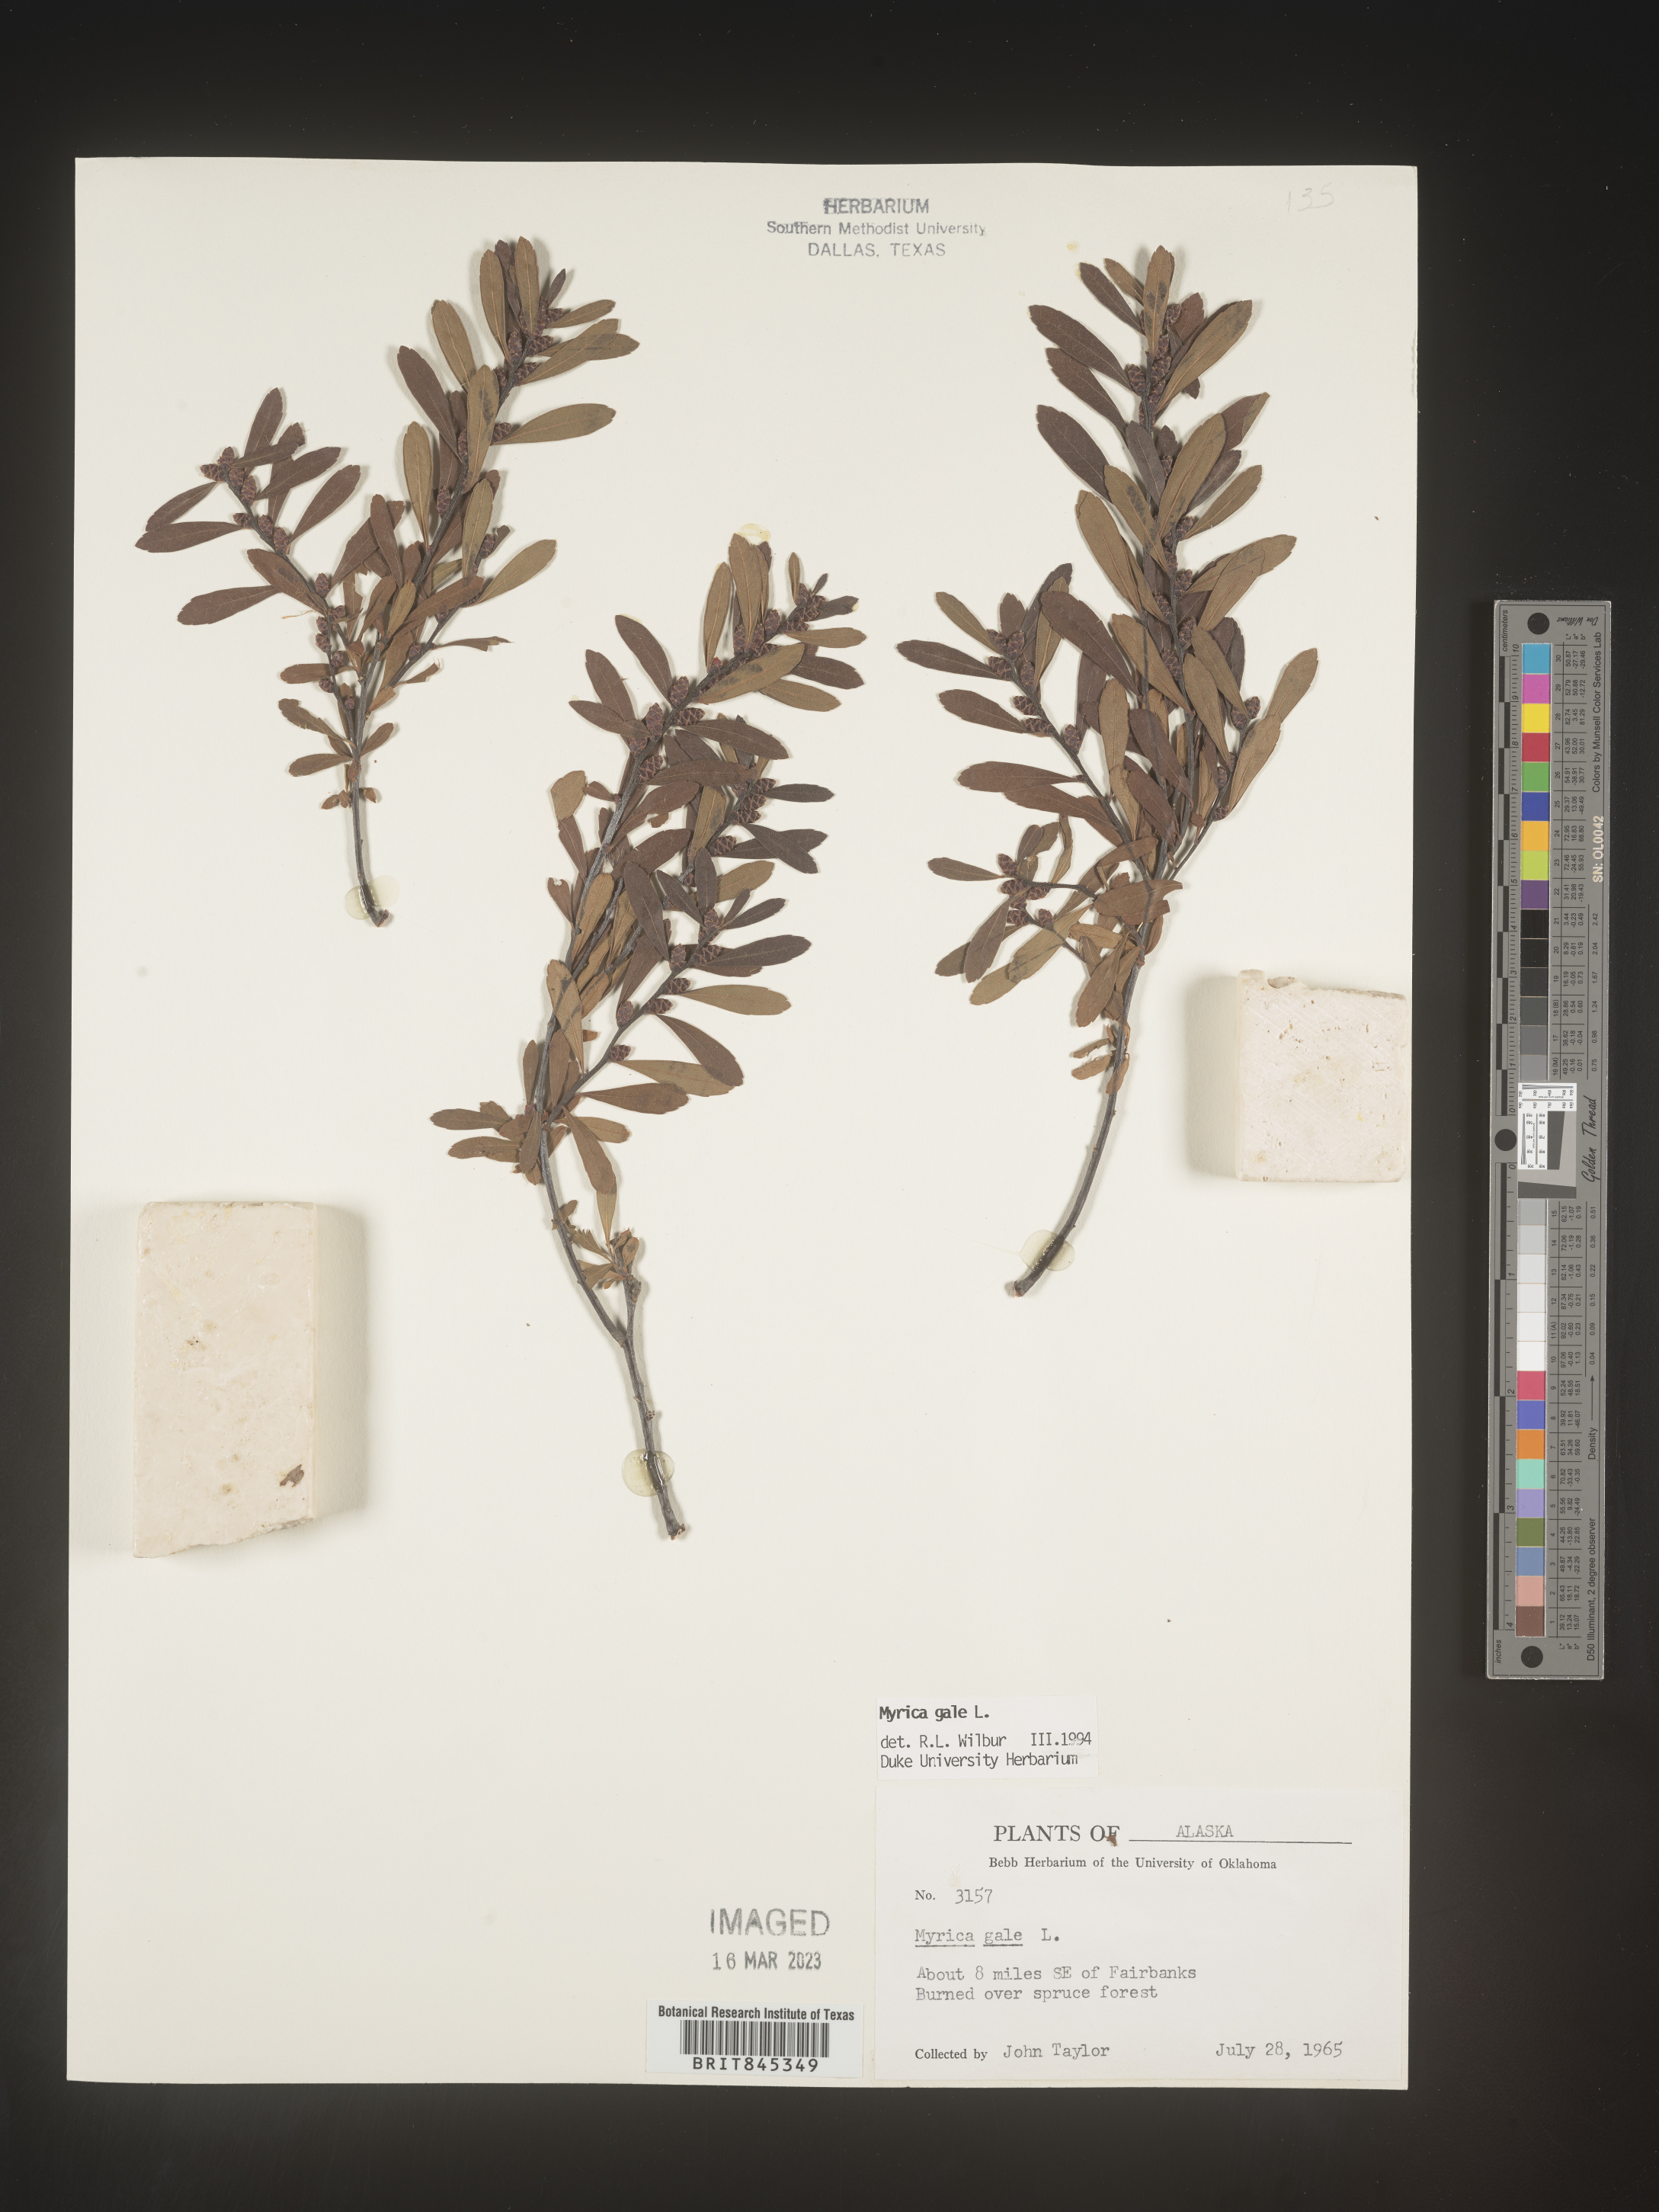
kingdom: Plantae
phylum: Tracheophyta
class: Magnoliopsida
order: Fagales
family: Myricaceae
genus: Myrica
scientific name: Myrica gale
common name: Sweet gale
